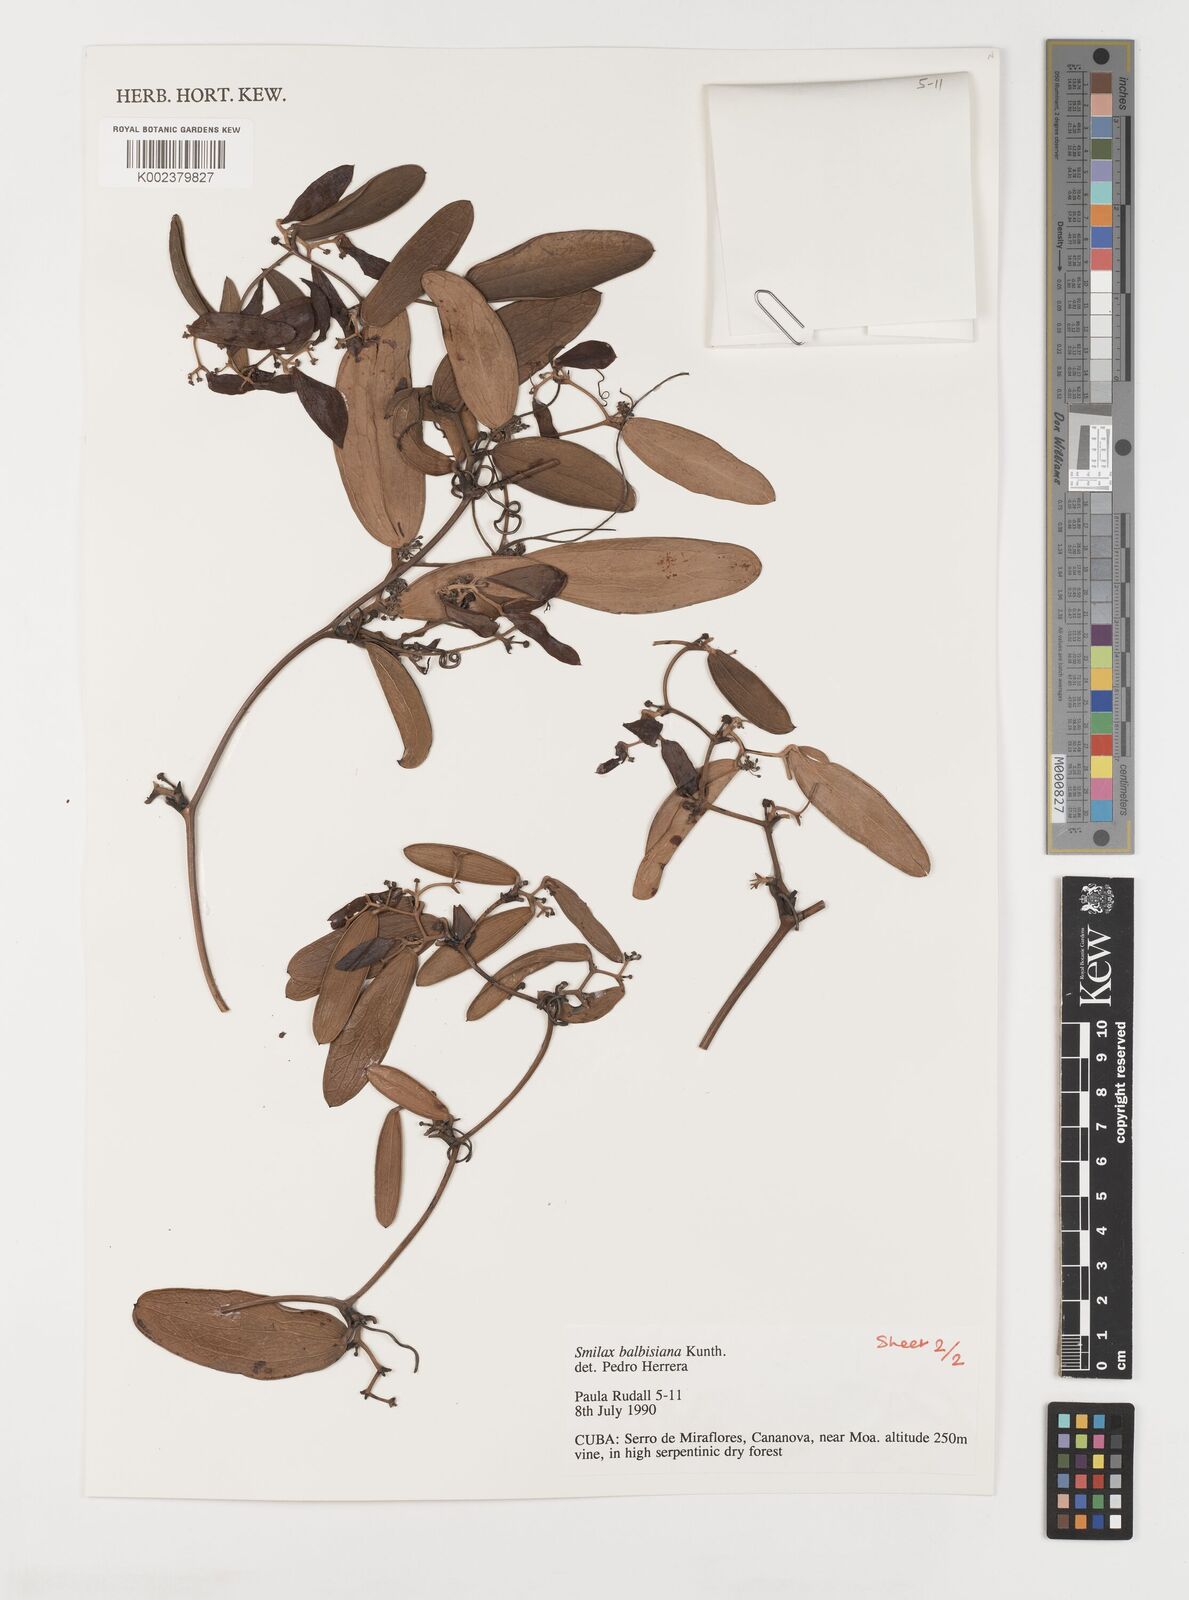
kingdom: Plantae
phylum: Tracheophyta
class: Liliopsida
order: Liliales
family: Smilacaceae
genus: Smilax
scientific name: Smilax domingensis
